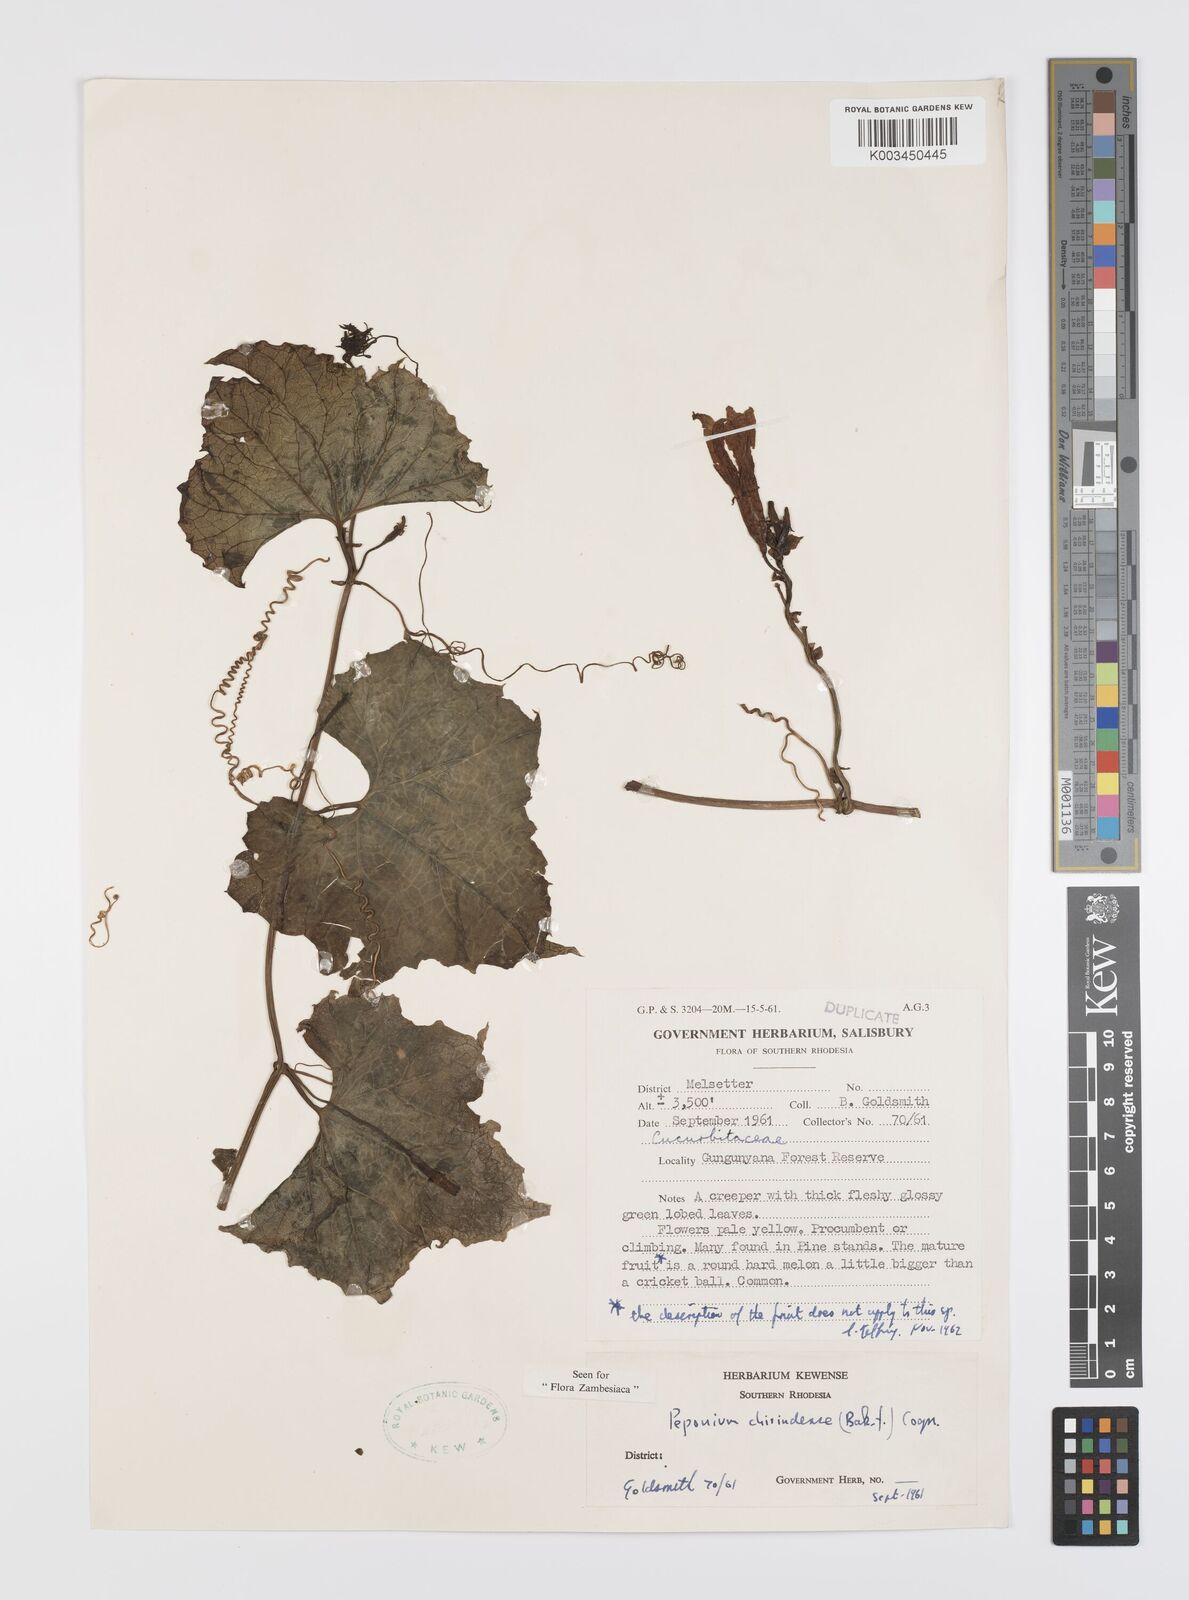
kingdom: Plantae
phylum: Tracheophyta
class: Magnoliopsida
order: Cucurbitales
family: Cucurbitaceae
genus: Peponium
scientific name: Peponium chirindense
